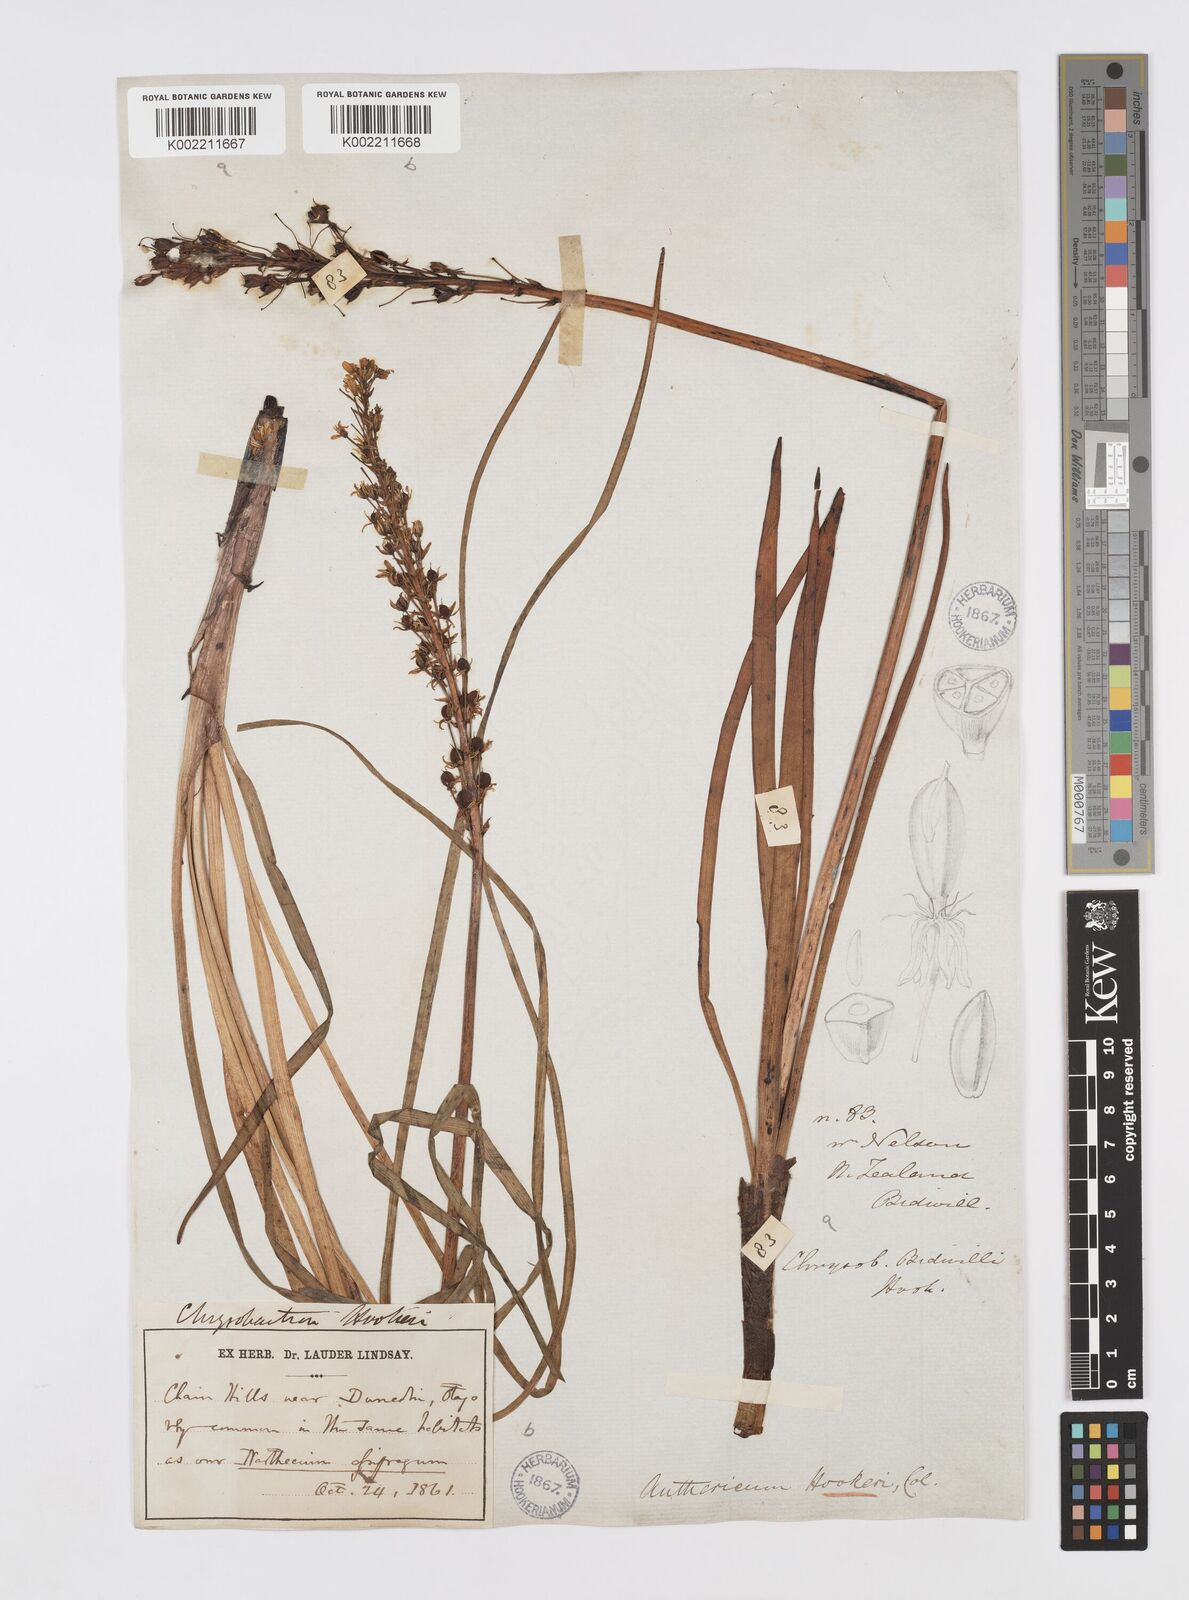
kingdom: Plantae
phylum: Tracheophyta
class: Liliopsida
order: Asparagales
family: Asphodelaceae
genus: Bulbinella
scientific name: Bulbinella hookeri
